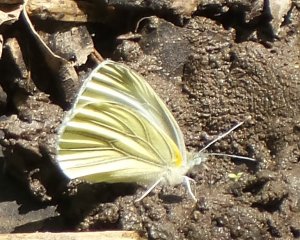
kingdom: Animalia
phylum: Arthropoda
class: Insecta
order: Lepidoptera
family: Pieridae
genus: Pieris
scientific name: Pieris oleracea
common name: Mustard White
